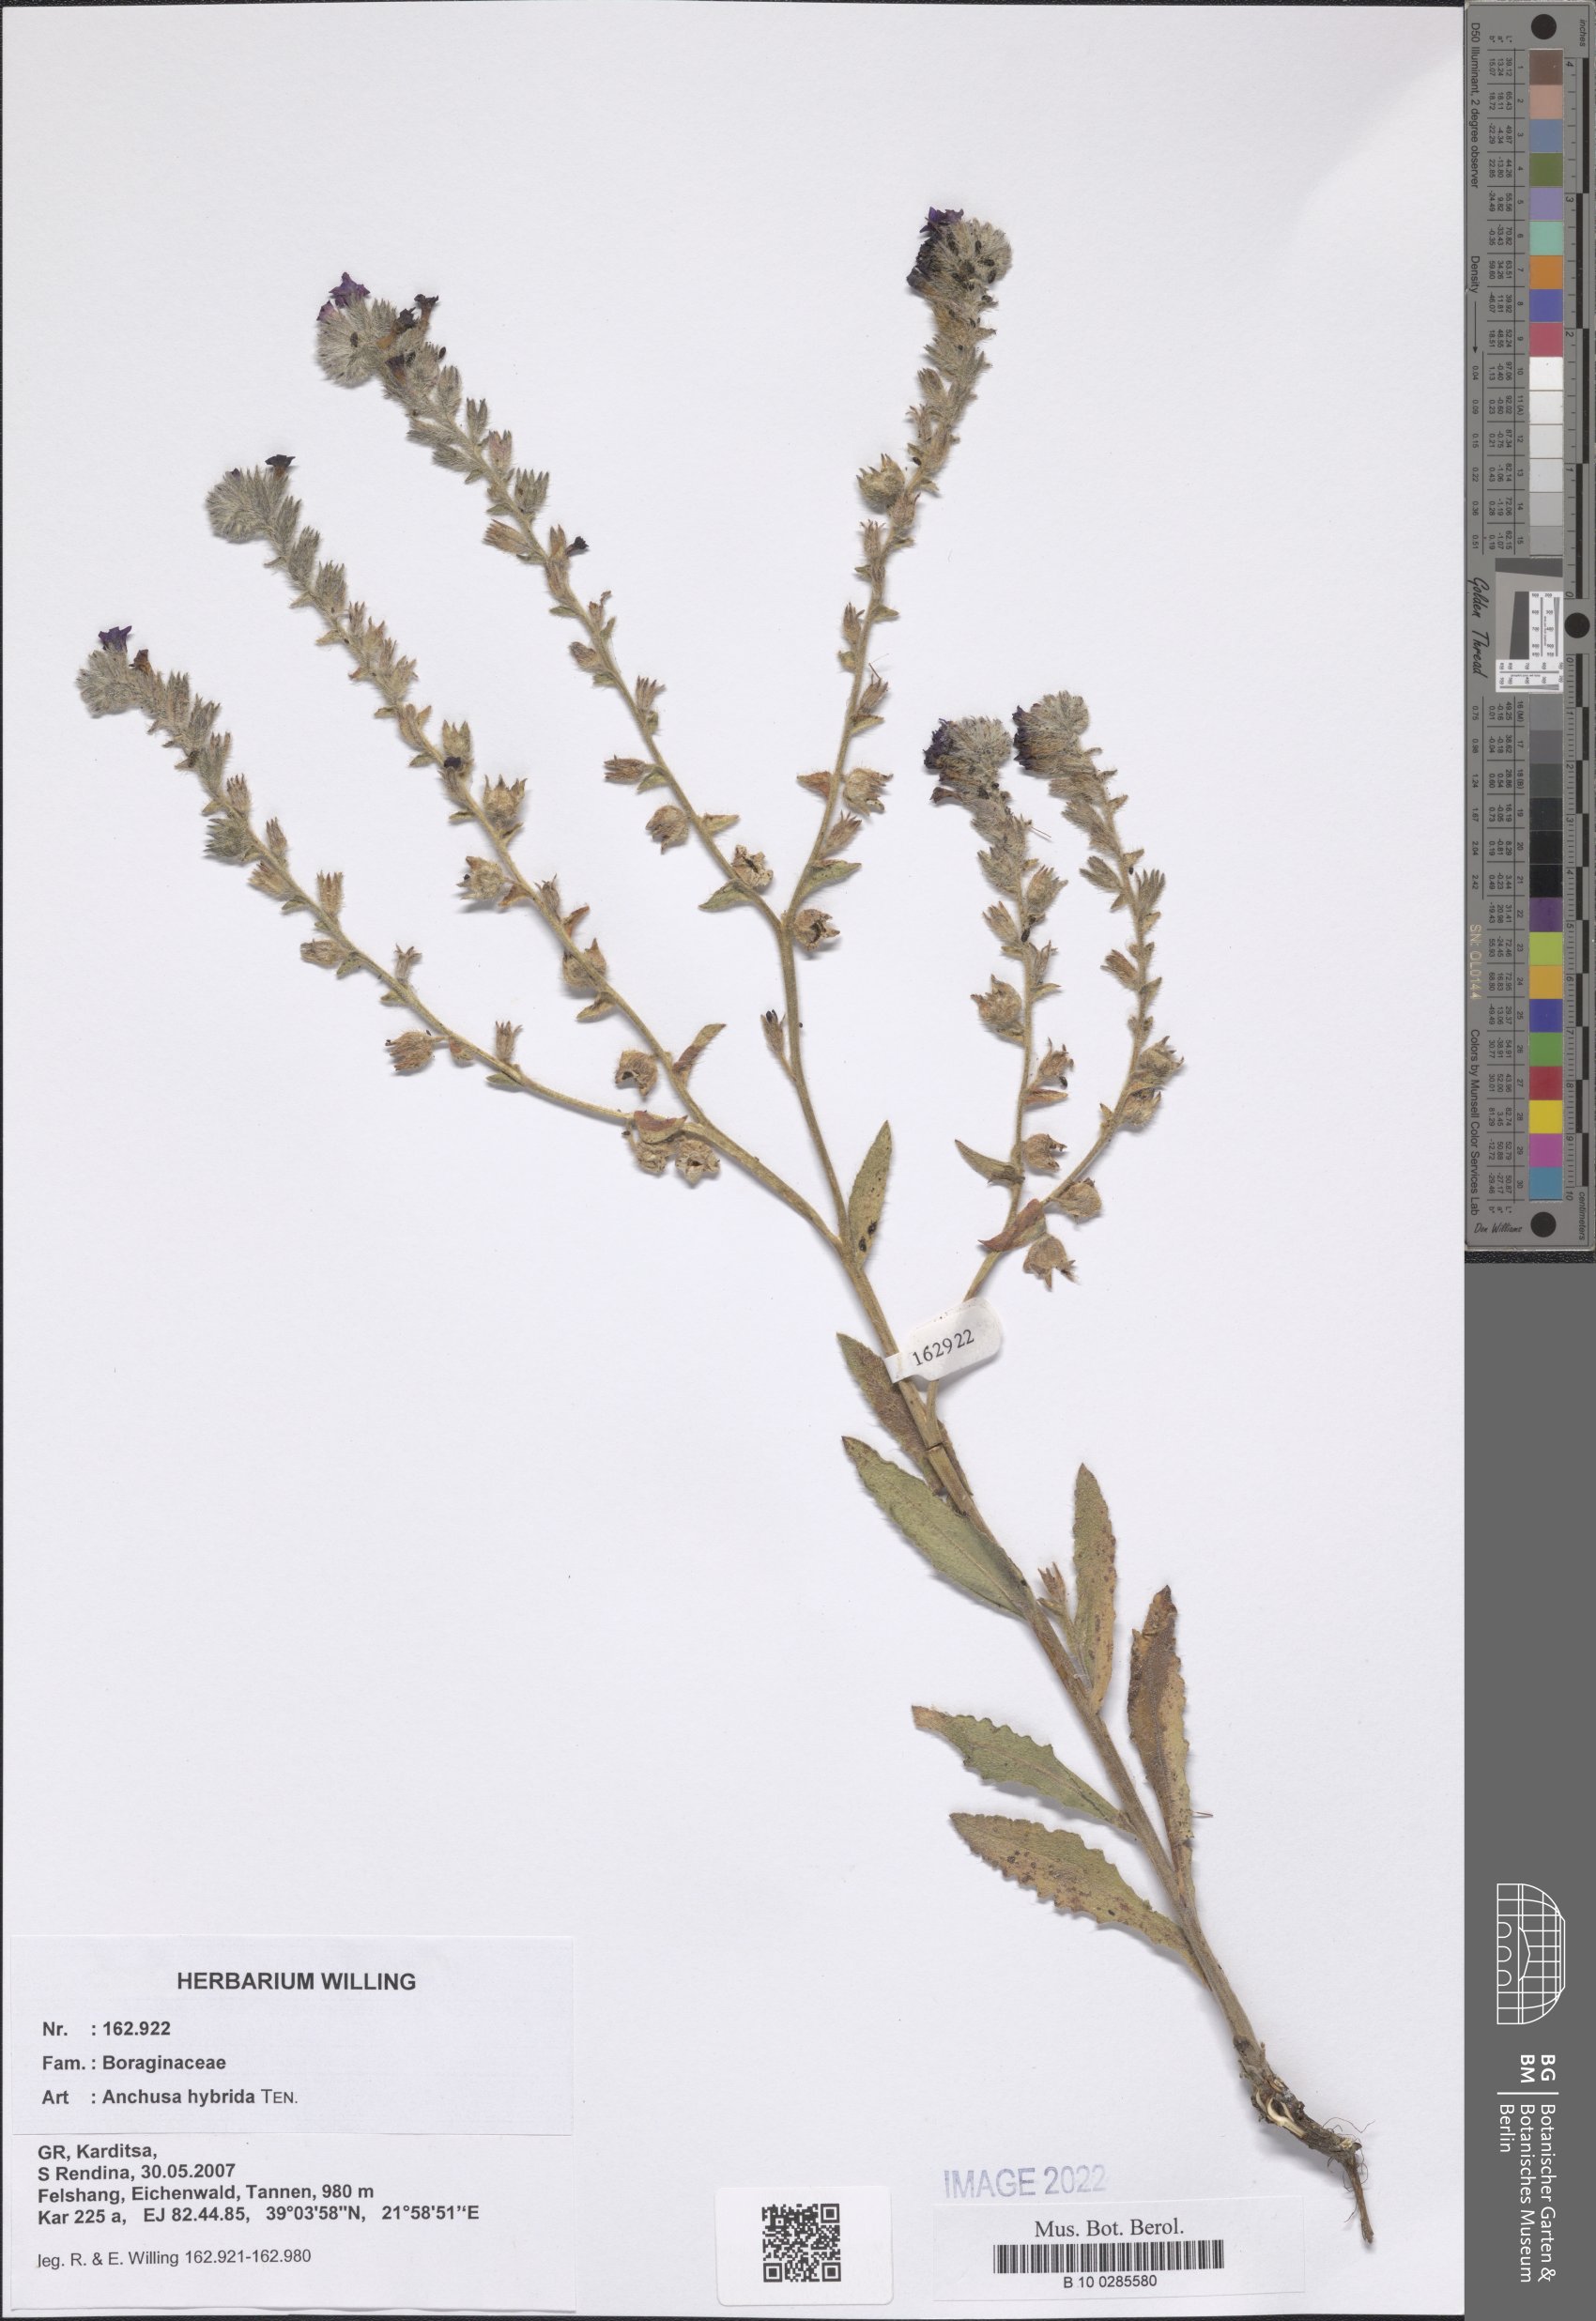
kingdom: Plantae
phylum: Tracheophyta
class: Magnoliopsida
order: Boraginales
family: Boraginaceae
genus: Anchusa
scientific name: Anchusa hybrida
